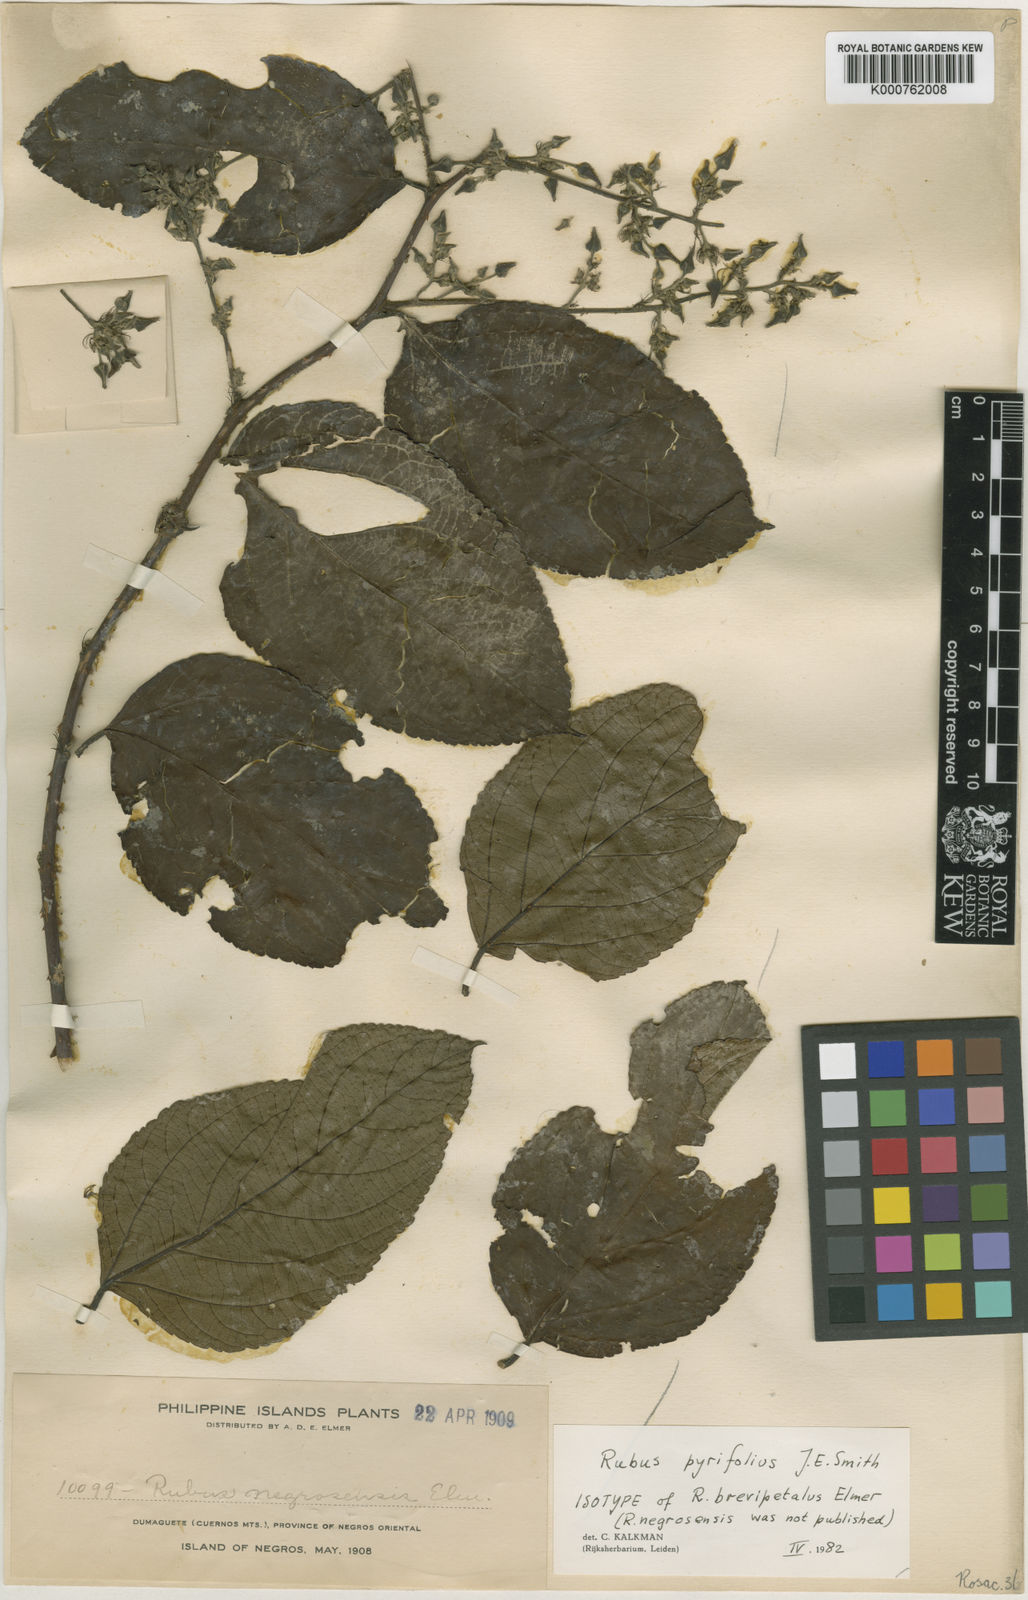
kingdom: Plantae
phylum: Tracheophyta
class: Magnoliopsida
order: Rosales
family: Rosaceae
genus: Rubus
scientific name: Rubus pirifolius
